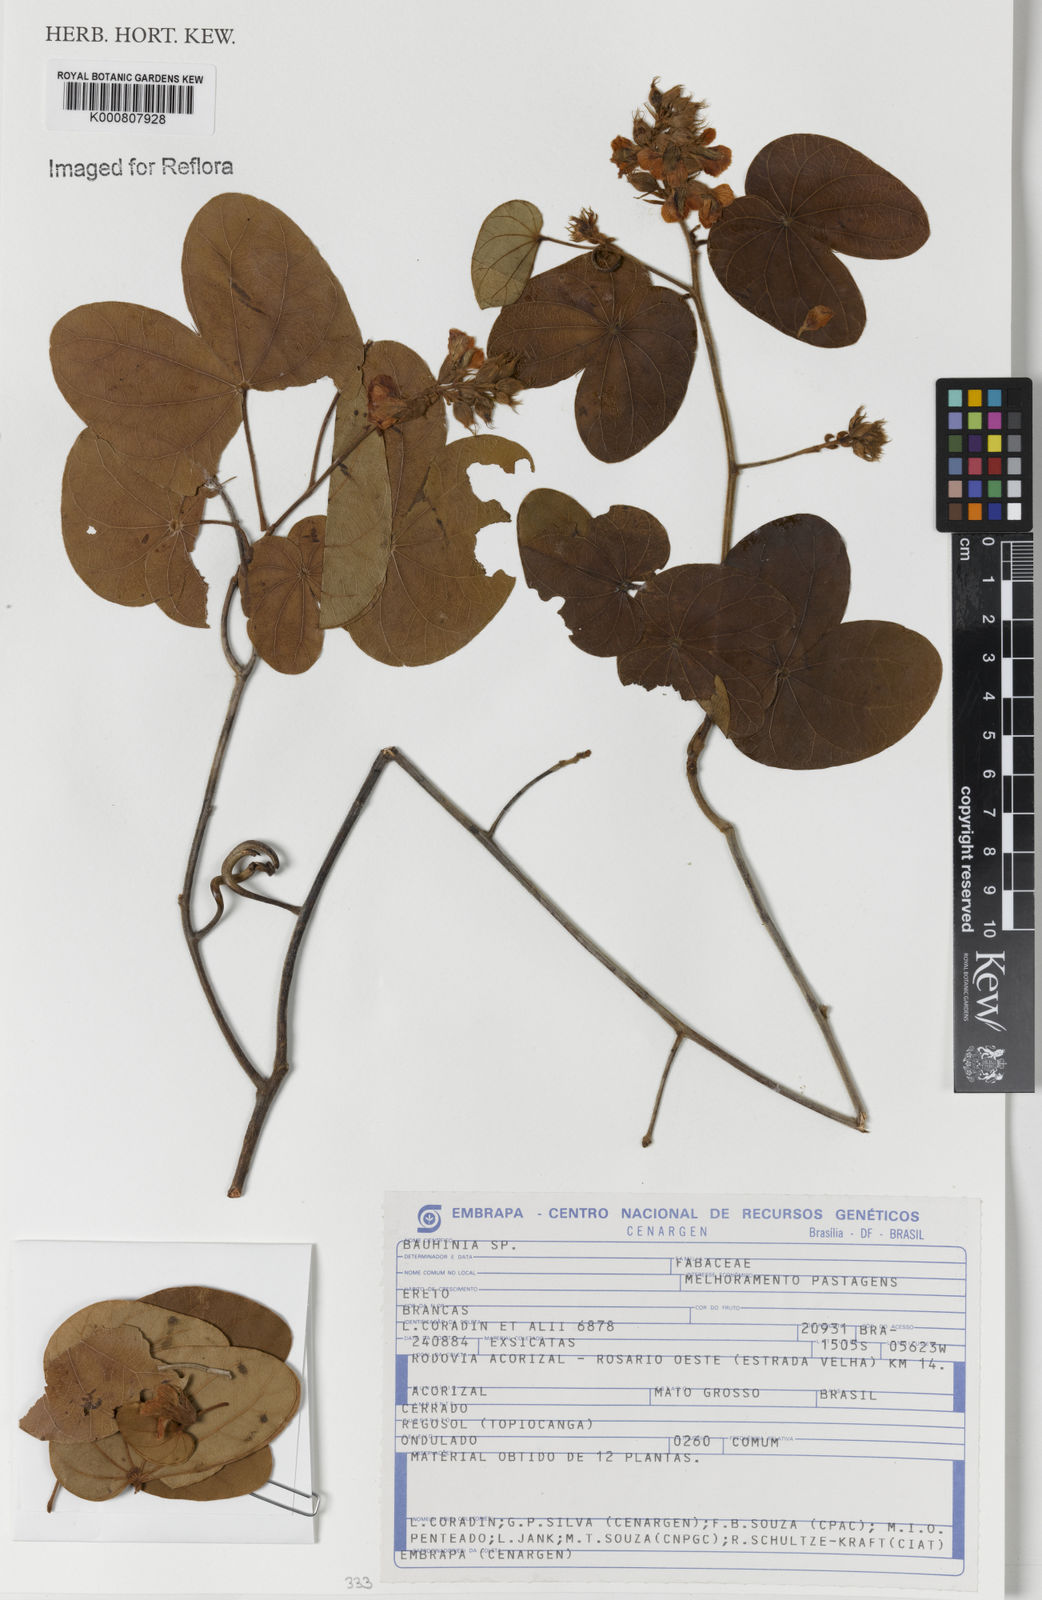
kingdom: Plantae
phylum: Tracheophyta
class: Magnoliopsida
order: Fabales
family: Fabaceae
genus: Schnella
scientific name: Schnella anamesa
